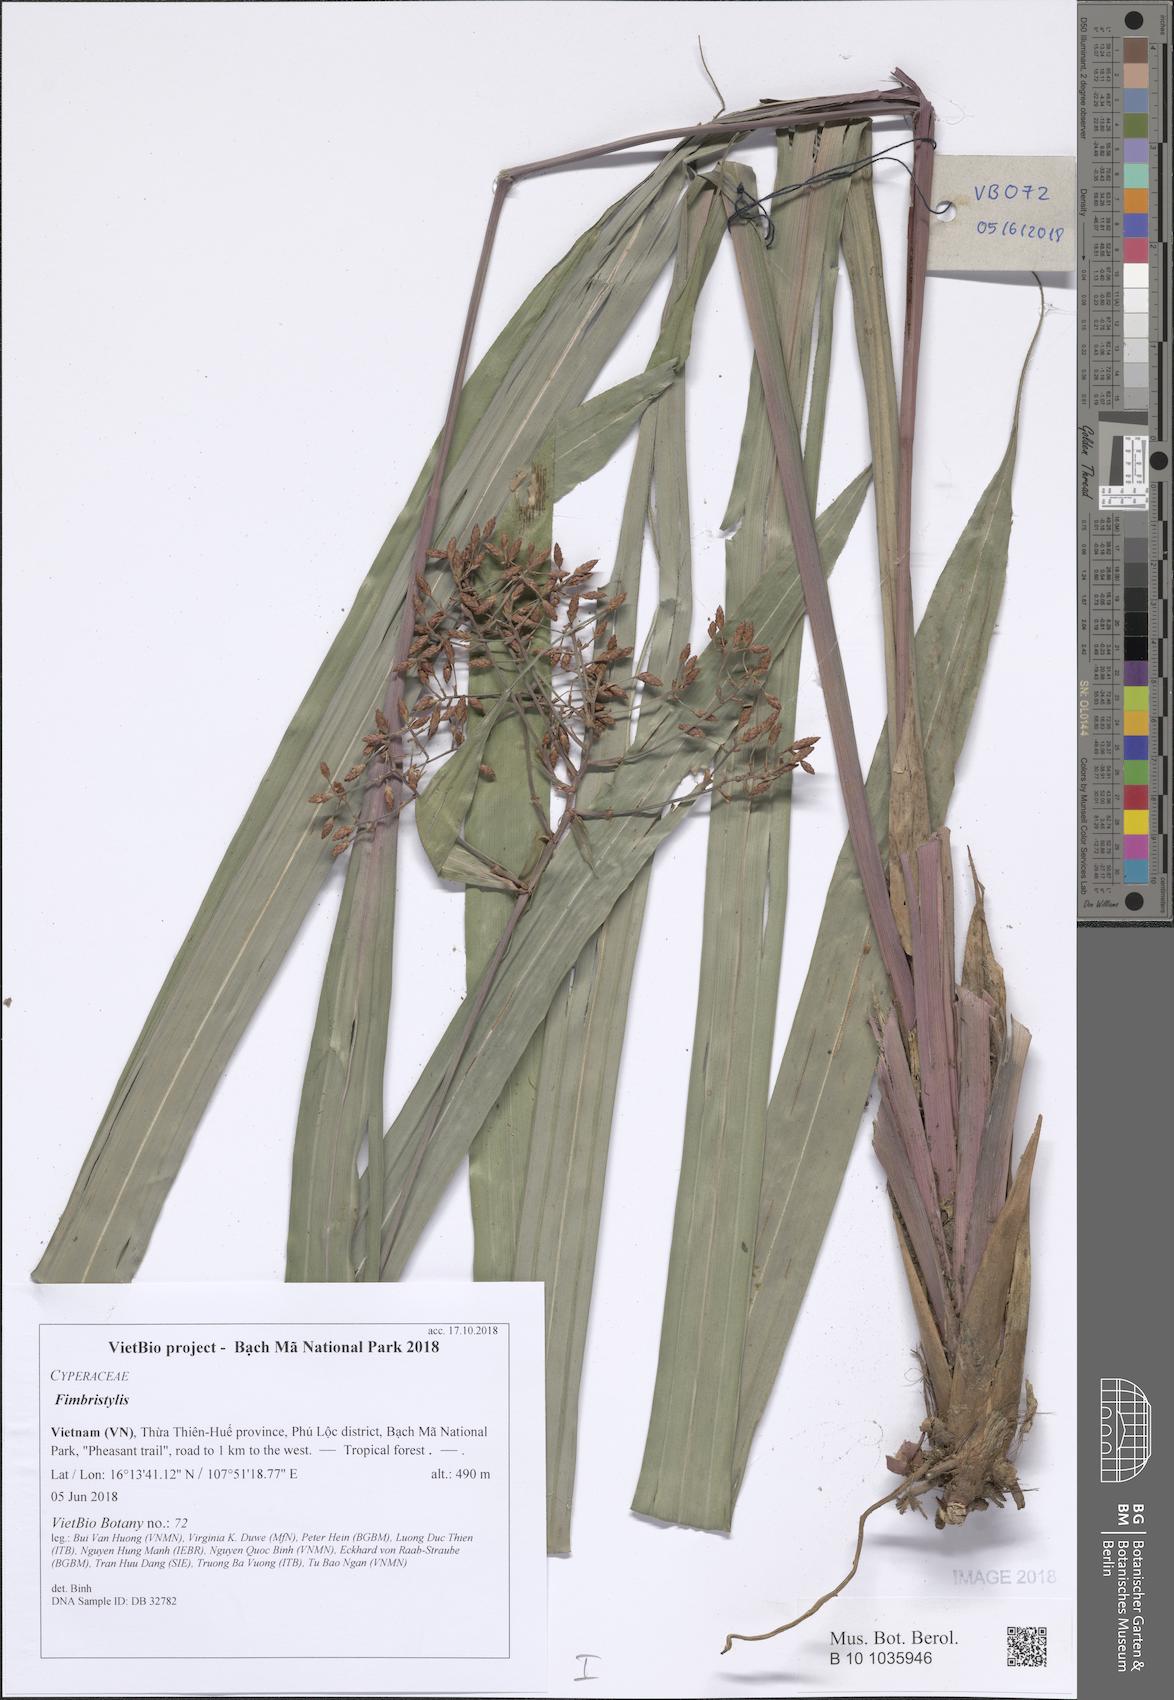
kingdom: Plantae
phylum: Tracheophyta
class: Liliopsida
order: Poales
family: Cyperaceae
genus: Fimbristylis
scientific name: Fimbristylis
